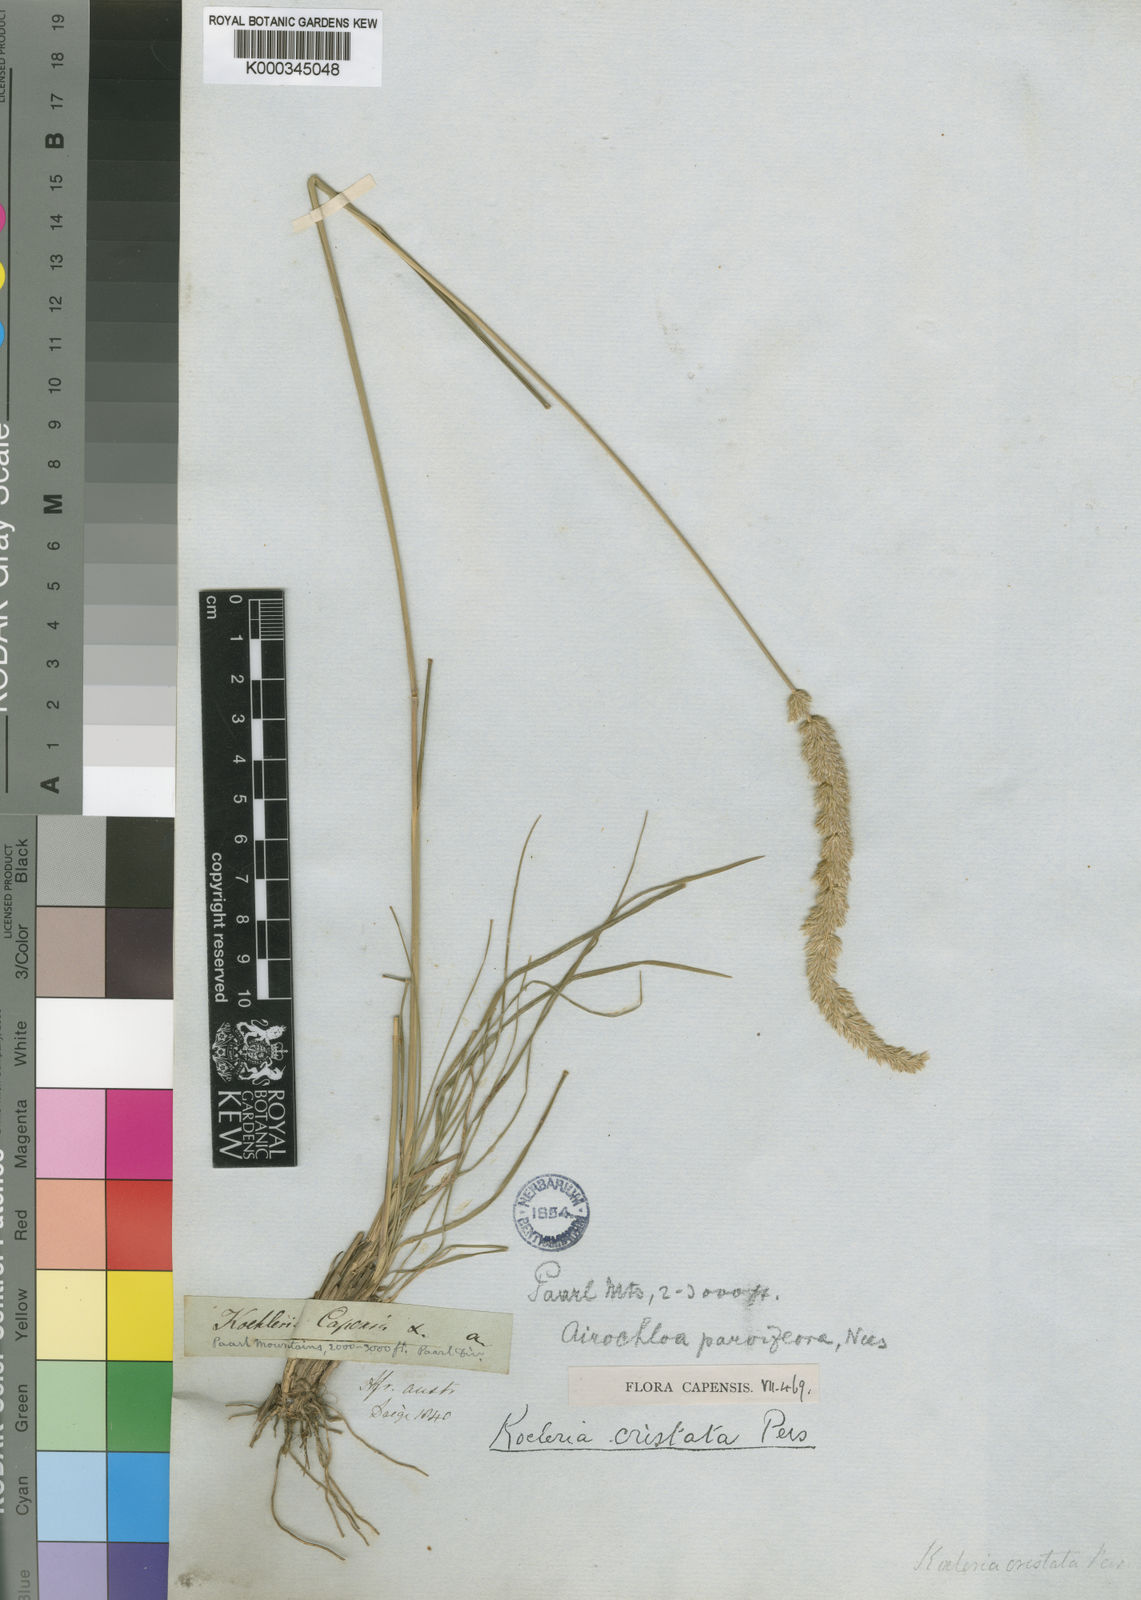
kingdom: Plantae
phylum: Tracheophyta
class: Liliopsida
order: Poales
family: Poaceae
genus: Koeleria
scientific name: Koeleria capensis
